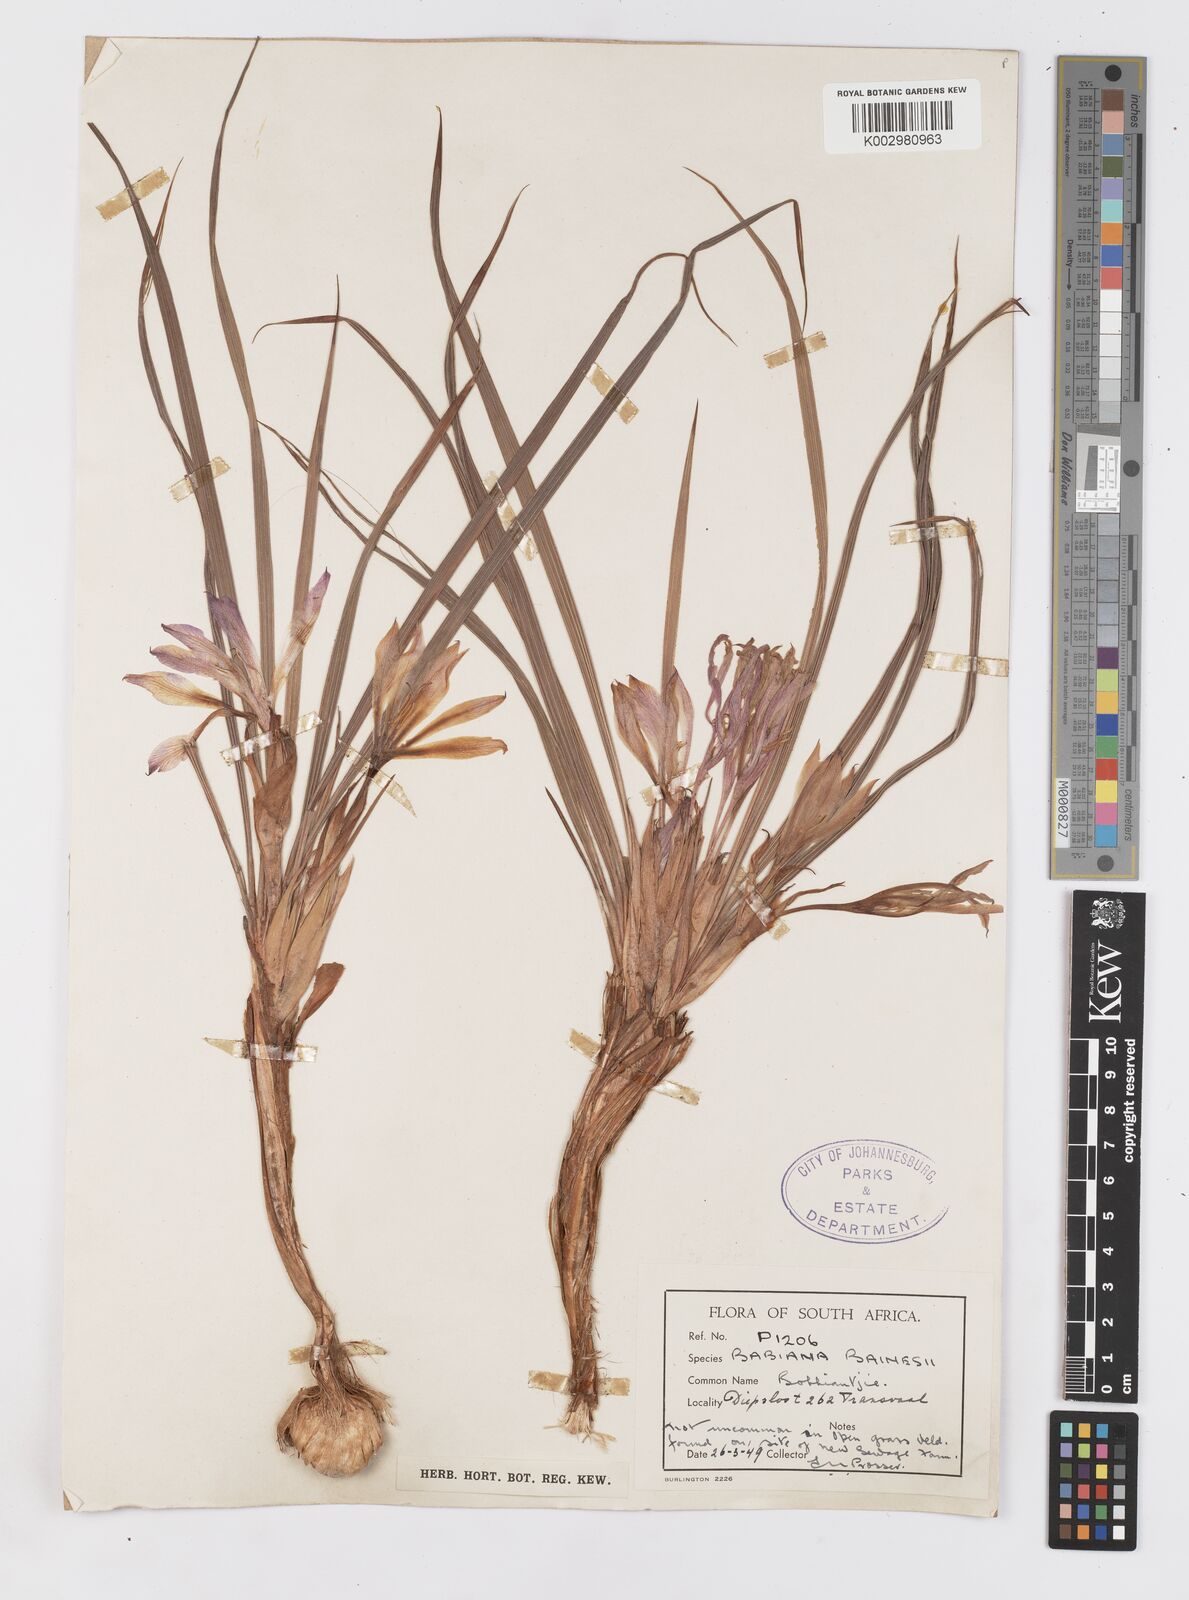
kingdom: Plantae
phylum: Tracheophyta
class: Liliopsida
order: Asparagales
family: Iridaceae
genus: Babiana
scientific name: Babiana
